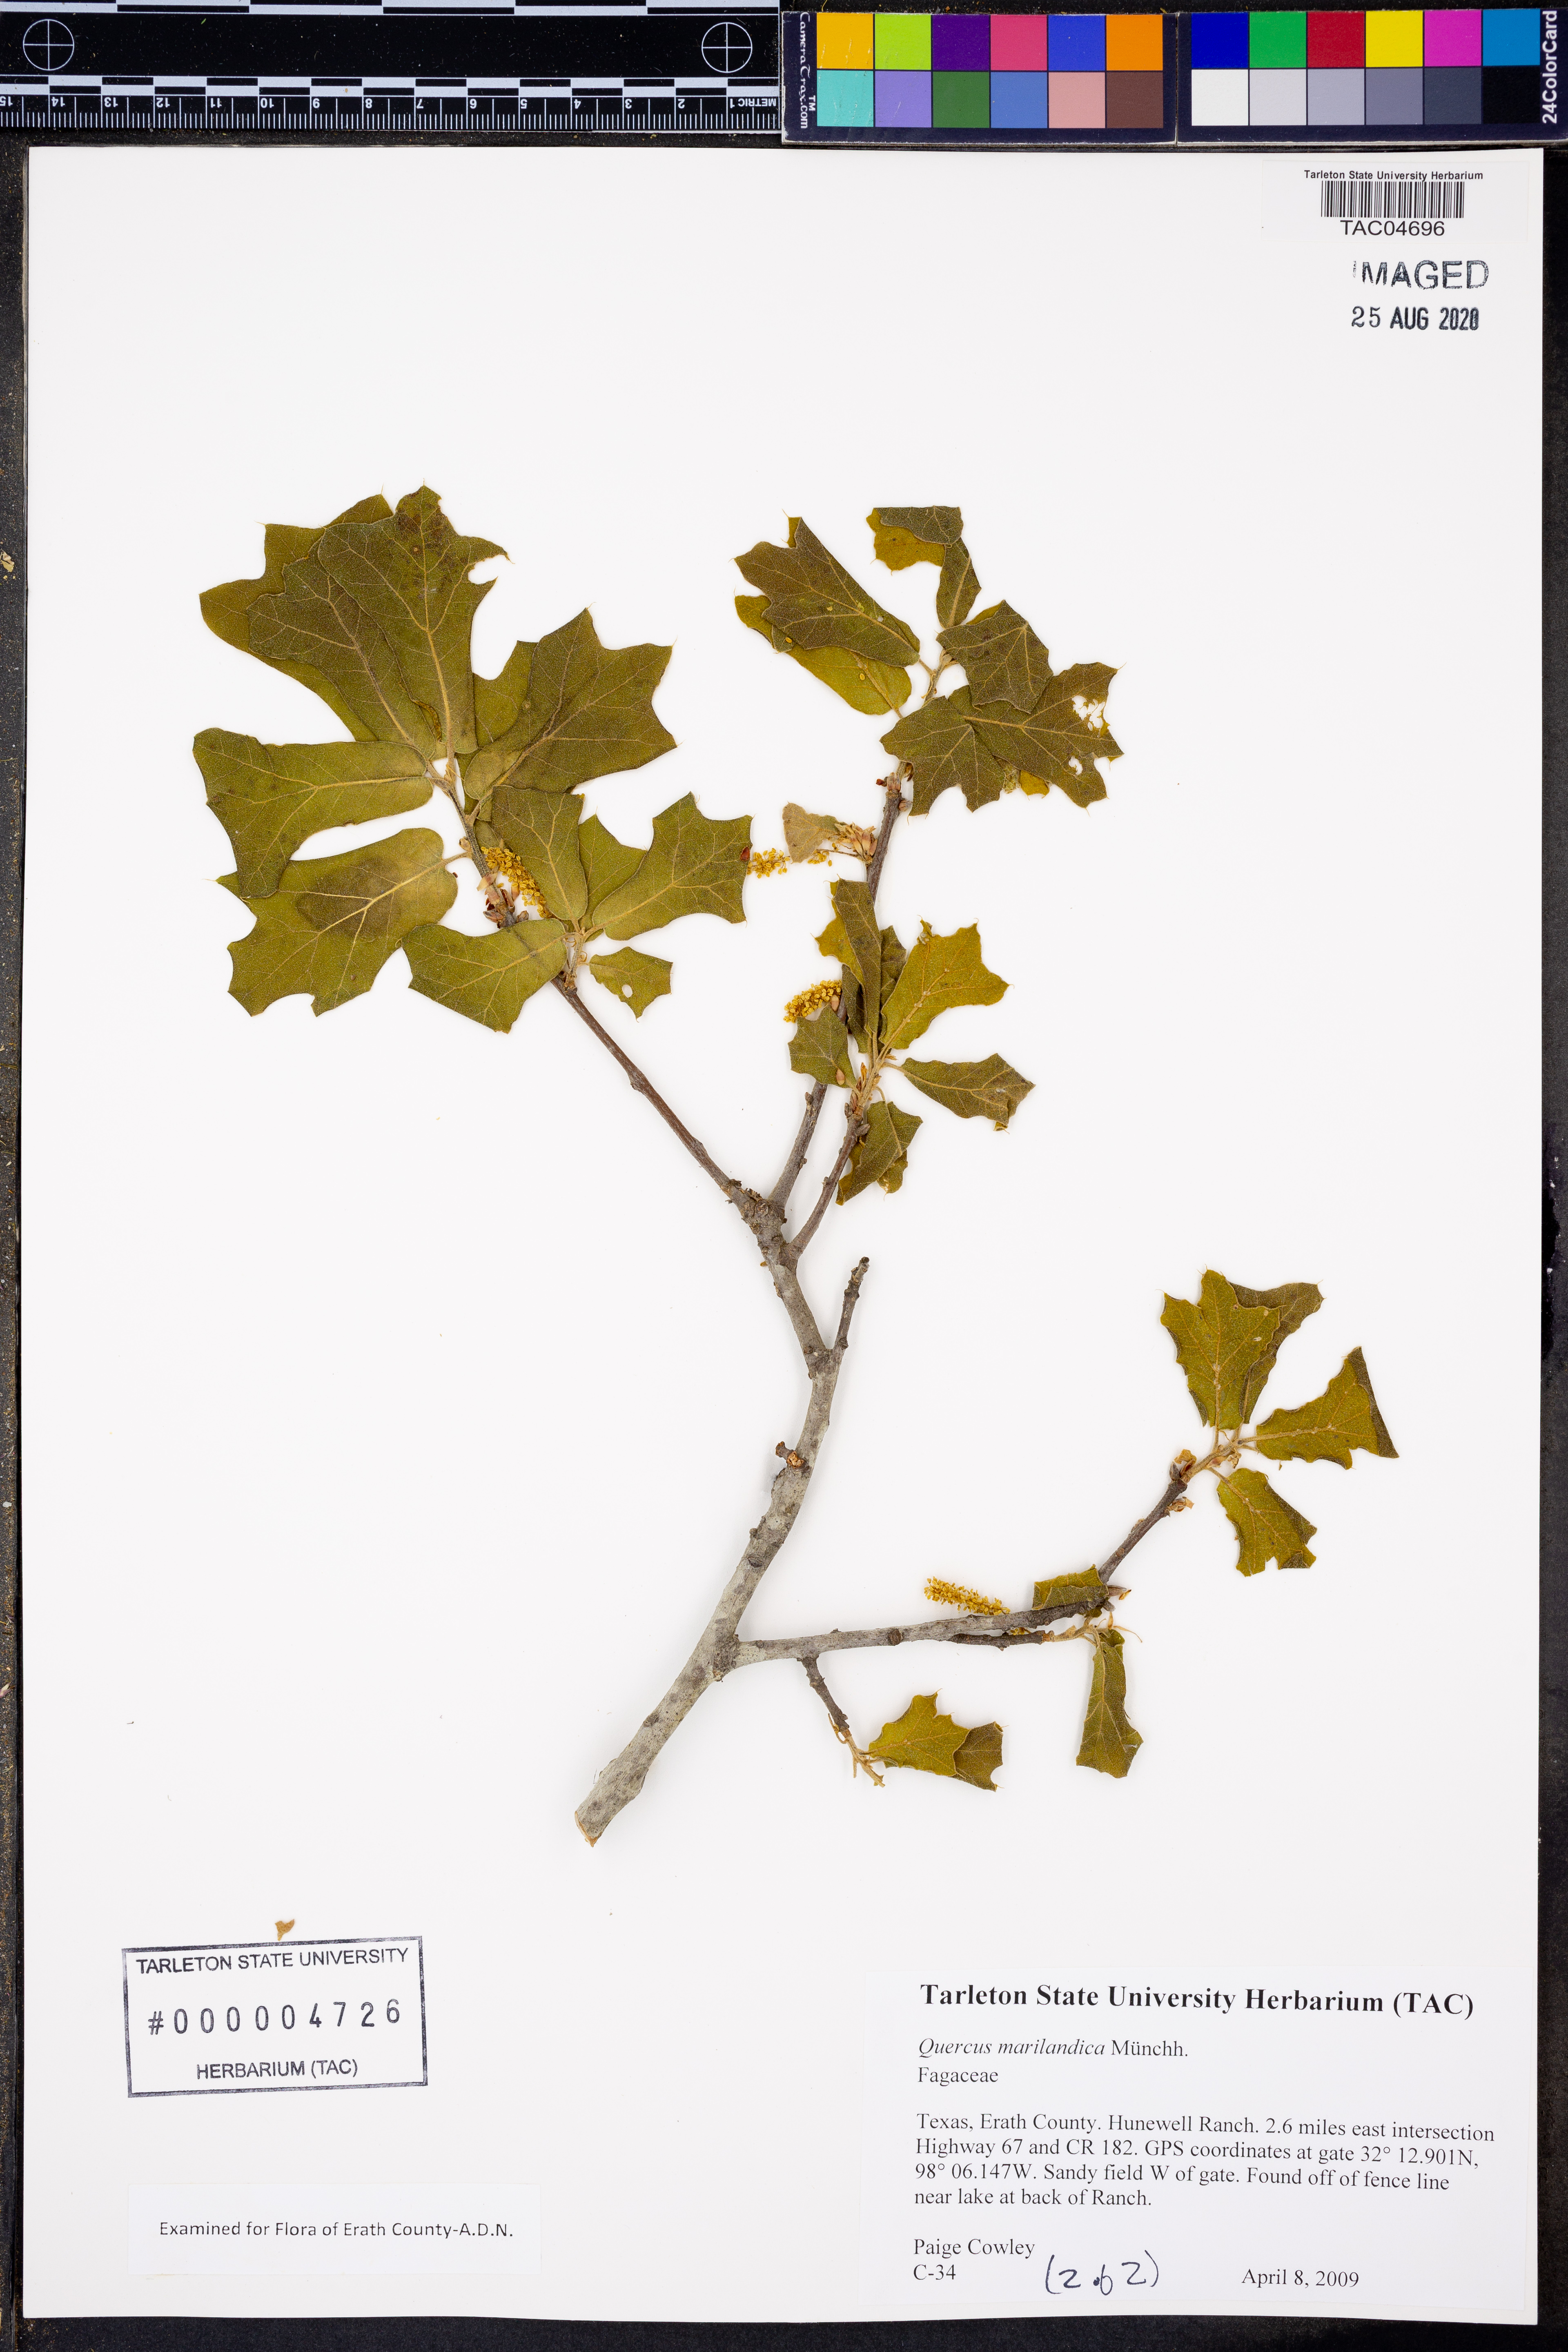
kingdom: Plantae
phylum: Tracheophyta
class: Magnoliopsida
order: Fagales
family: Fagaceae
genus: Quercus
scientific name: Quercus marilandica
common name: Blackjack oak
